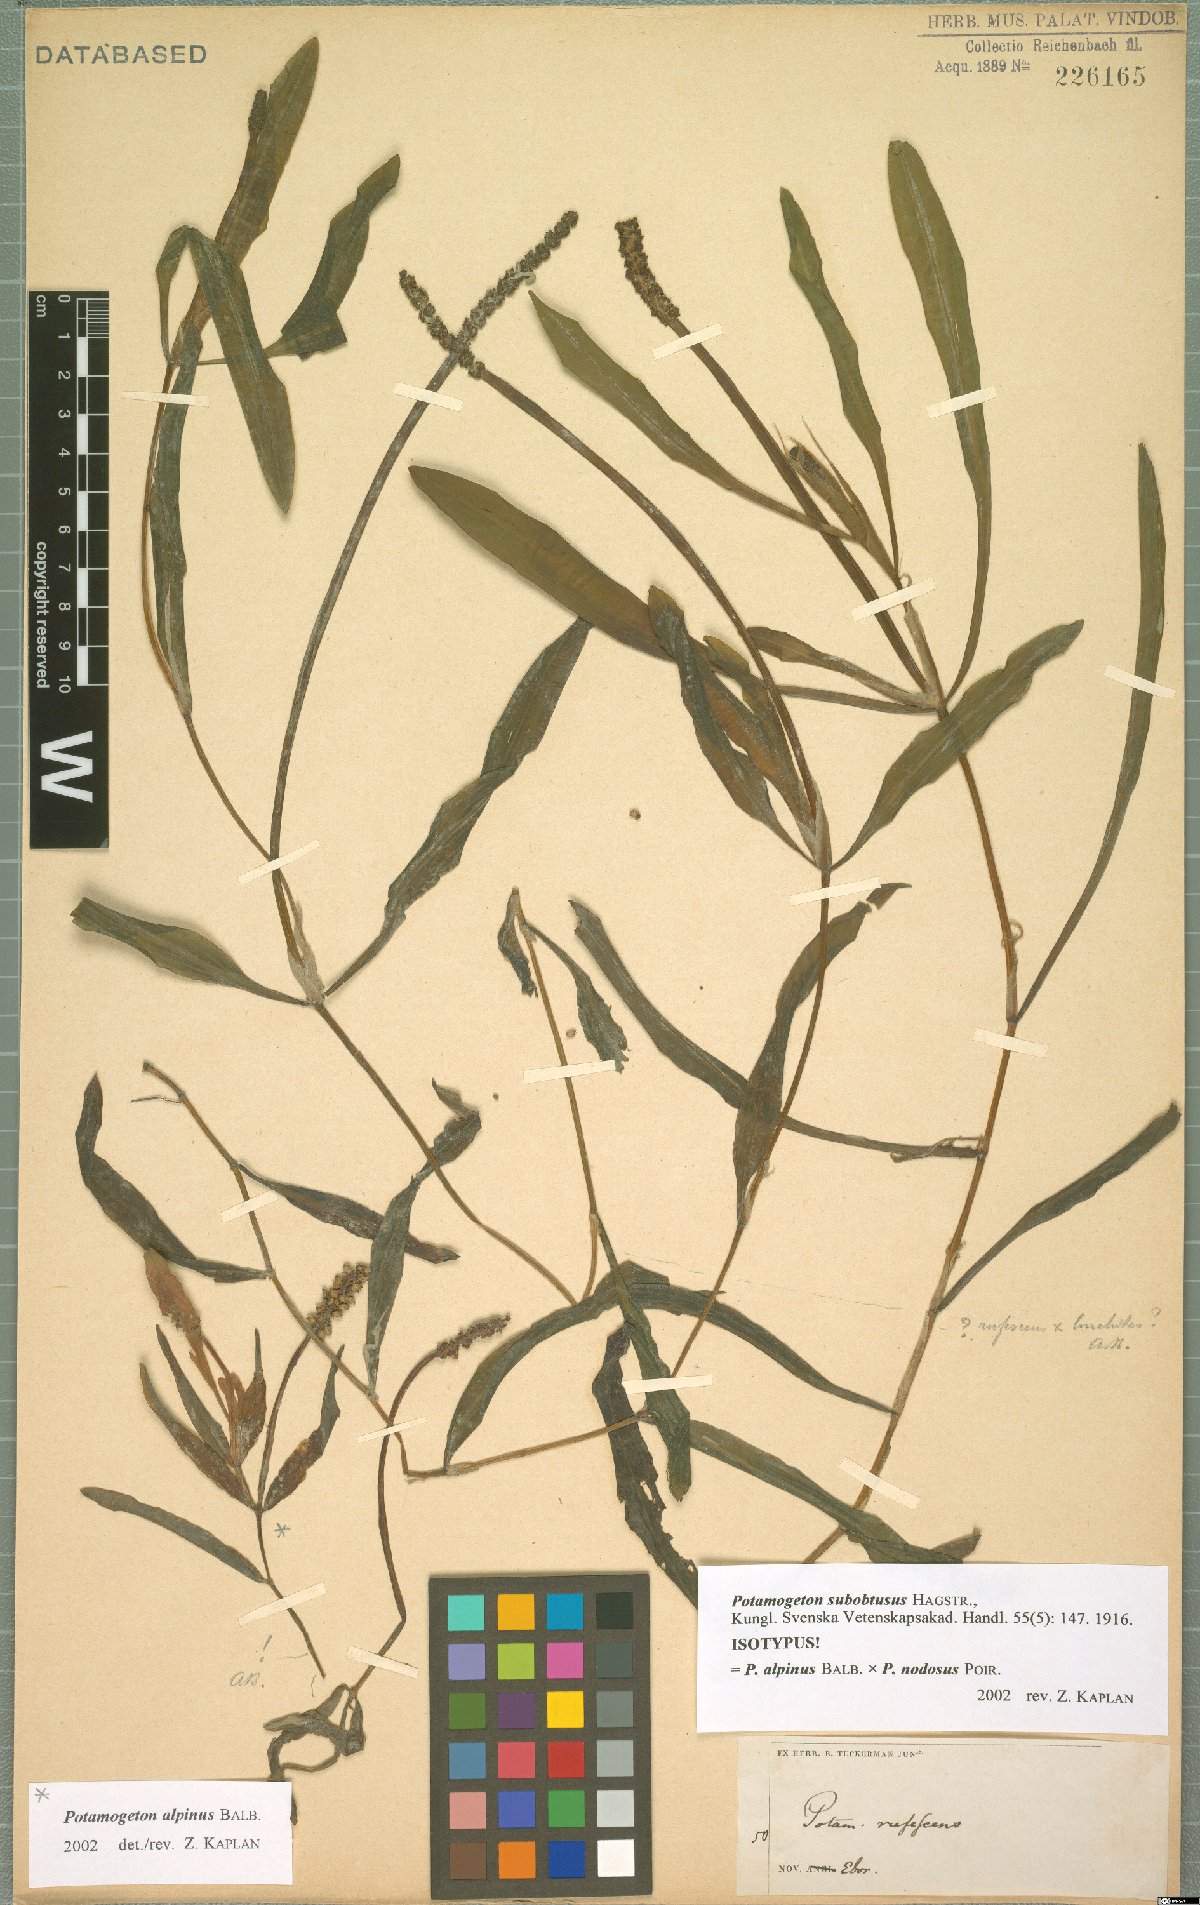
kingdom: Plantae
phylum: Tracheophyta
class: Liliopsida
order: Alismatales
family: Potamogetonaceae
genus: Potamogeton
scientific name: Potamogeton amplifolius
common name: Broad-leaved pondweed
